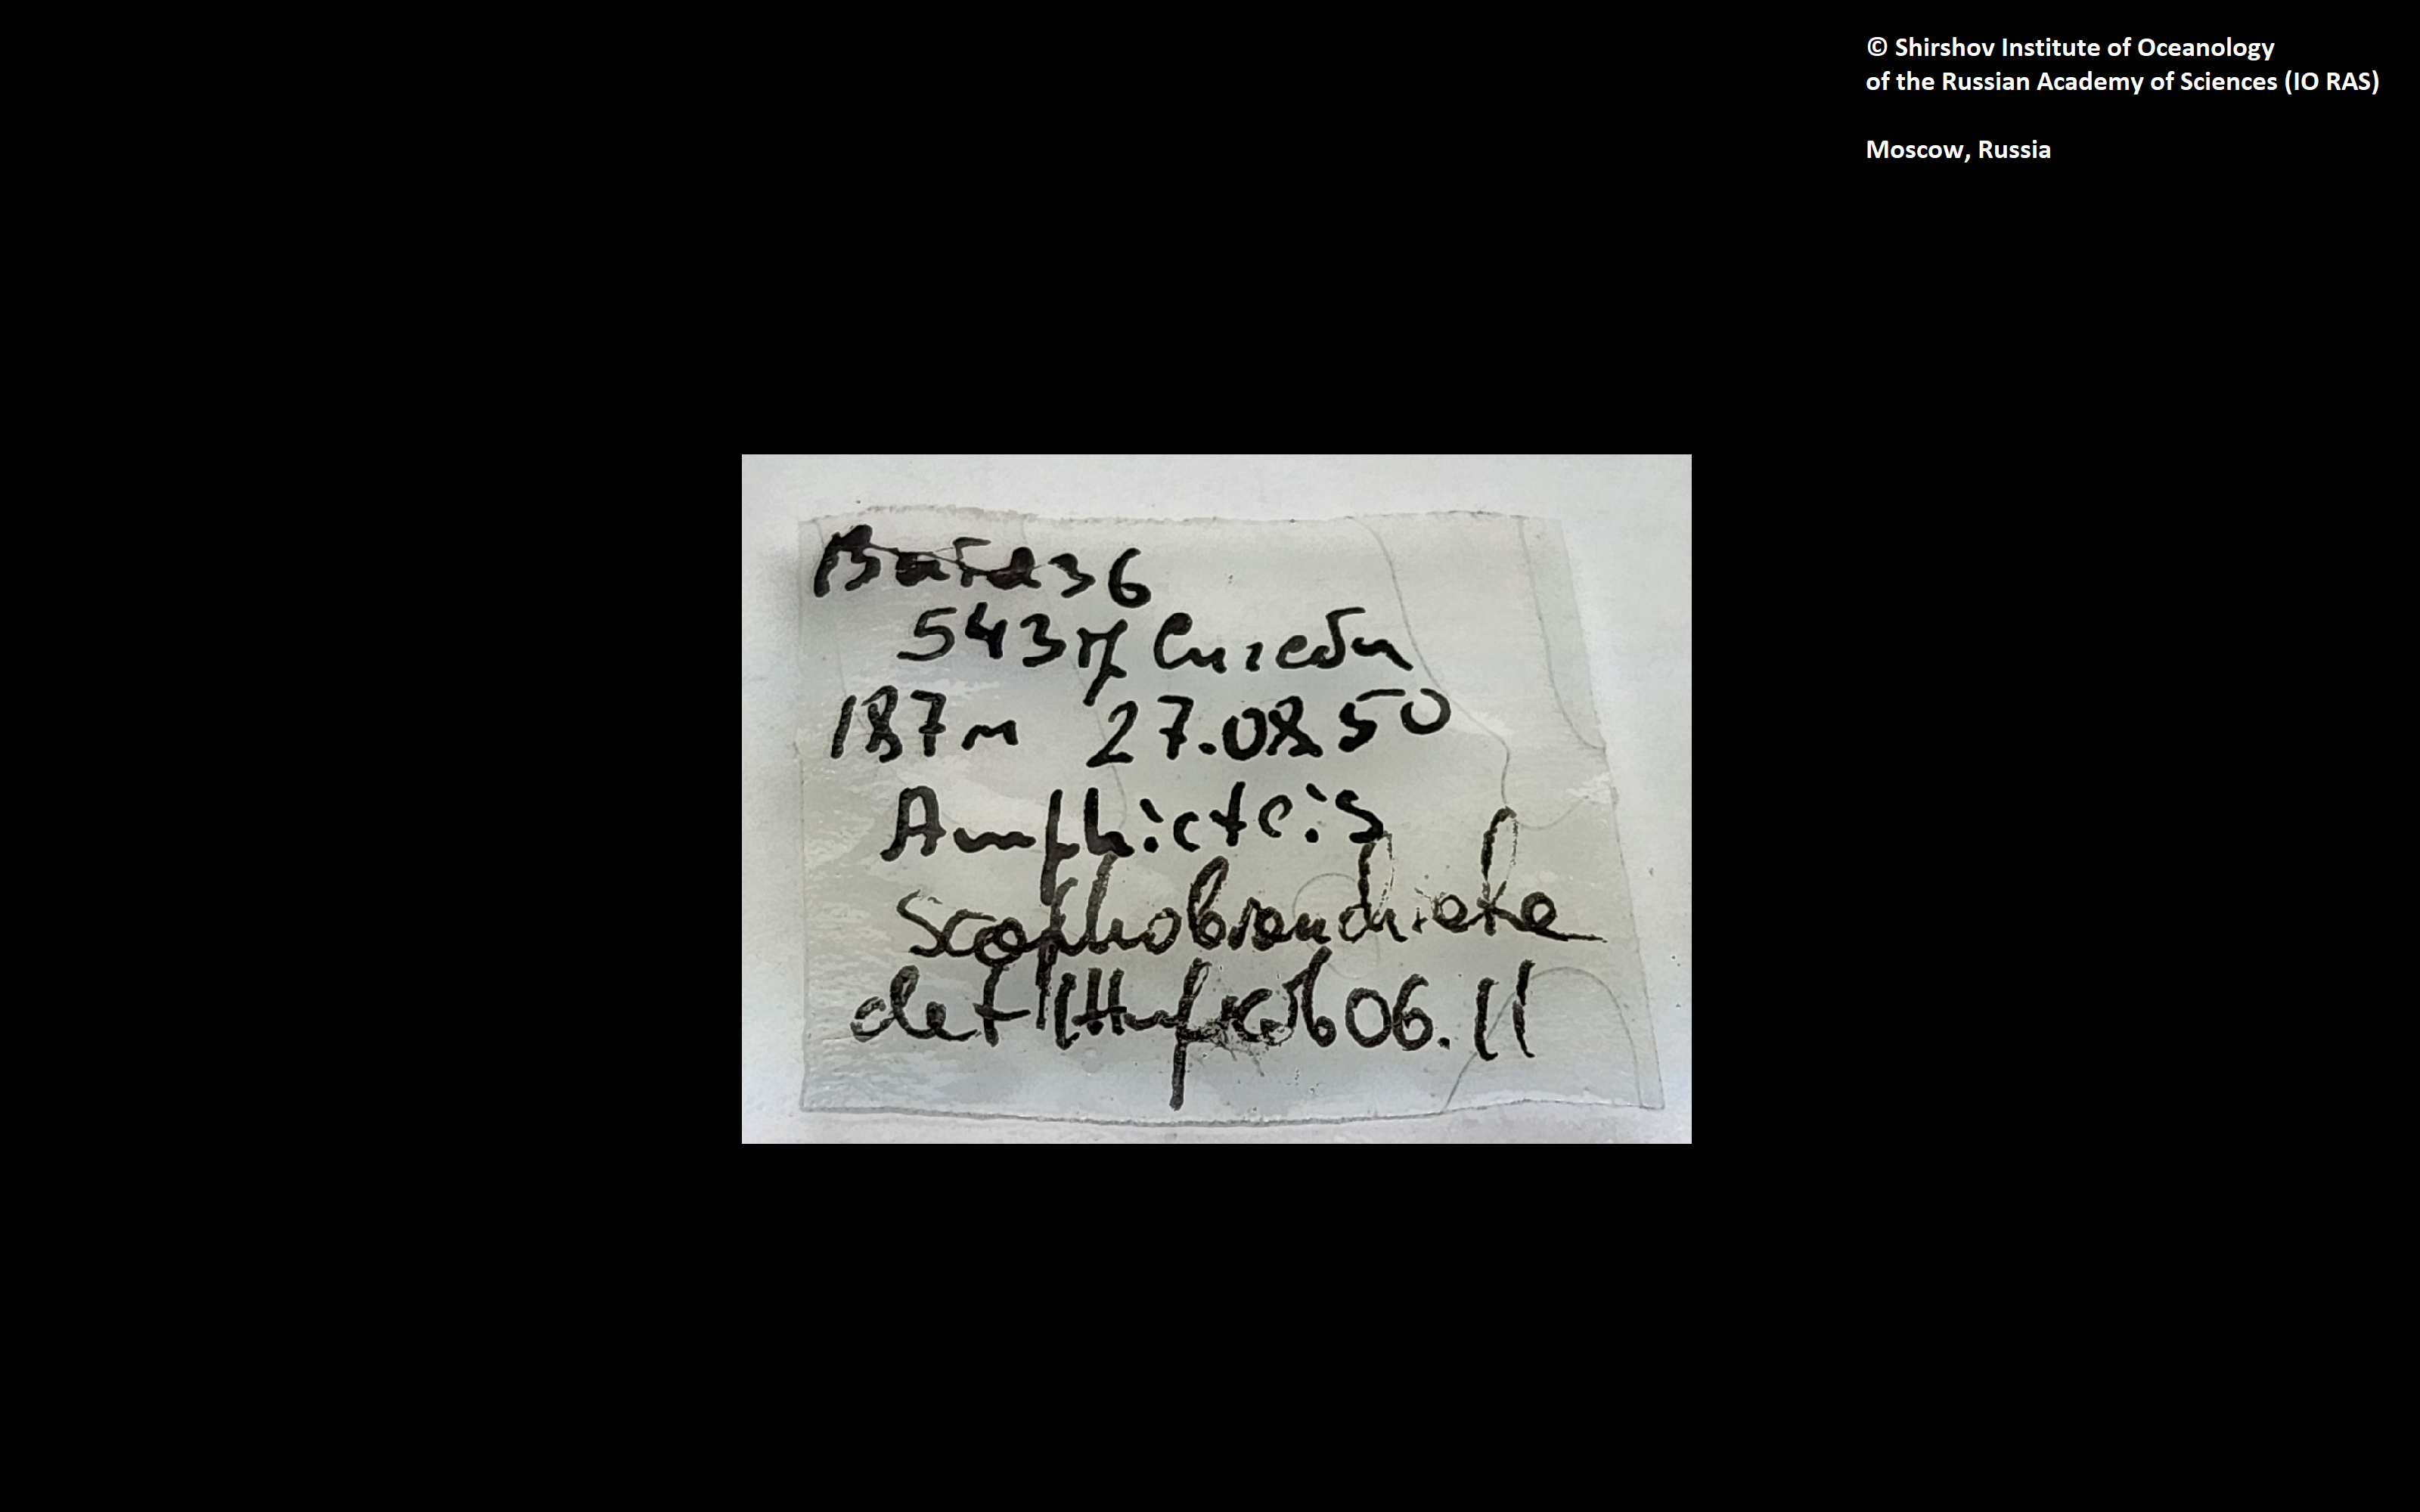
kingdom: Animalia
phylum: Annelida
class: Polychaeta
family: Ampharetidae
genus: Amphicteis
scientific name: Amphicteis nikiti
